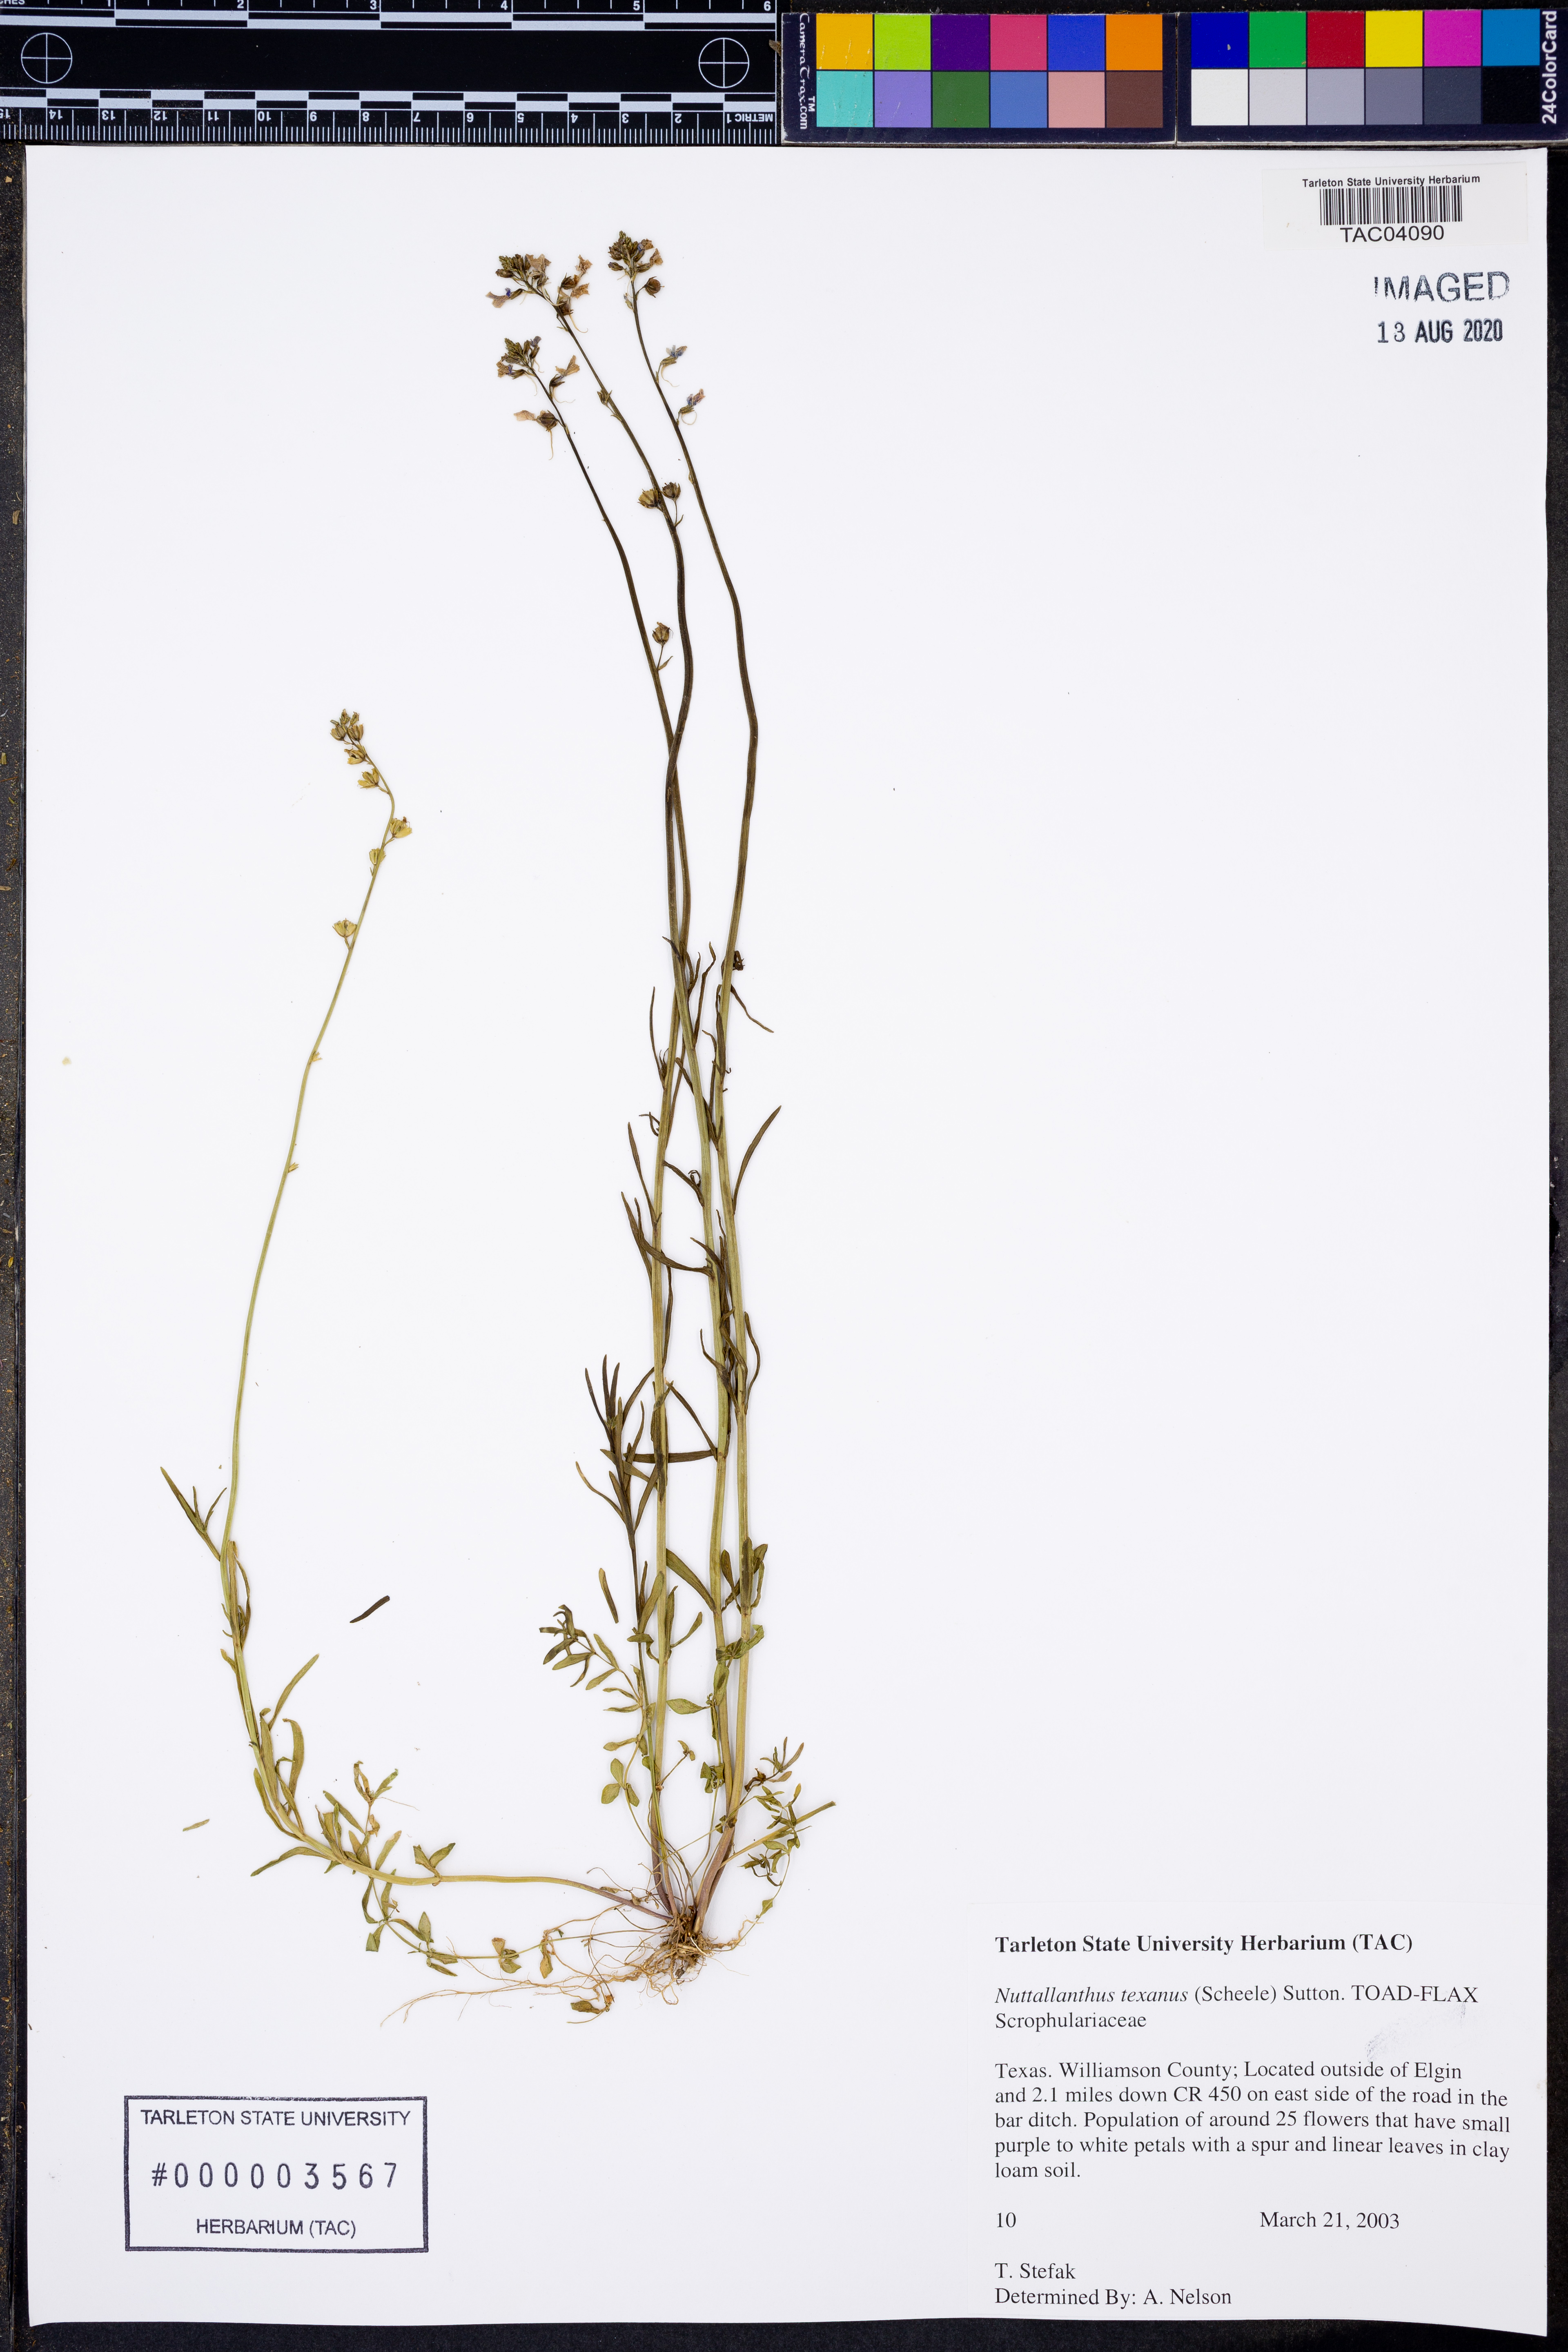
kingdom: Plantae
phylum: Tracheophyta
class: Magnoliopsida
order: Lamiales
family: Plantaginaceae
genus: Nuttallanthus
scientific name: Nuttallanthus texanus
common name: Texas toadflax
